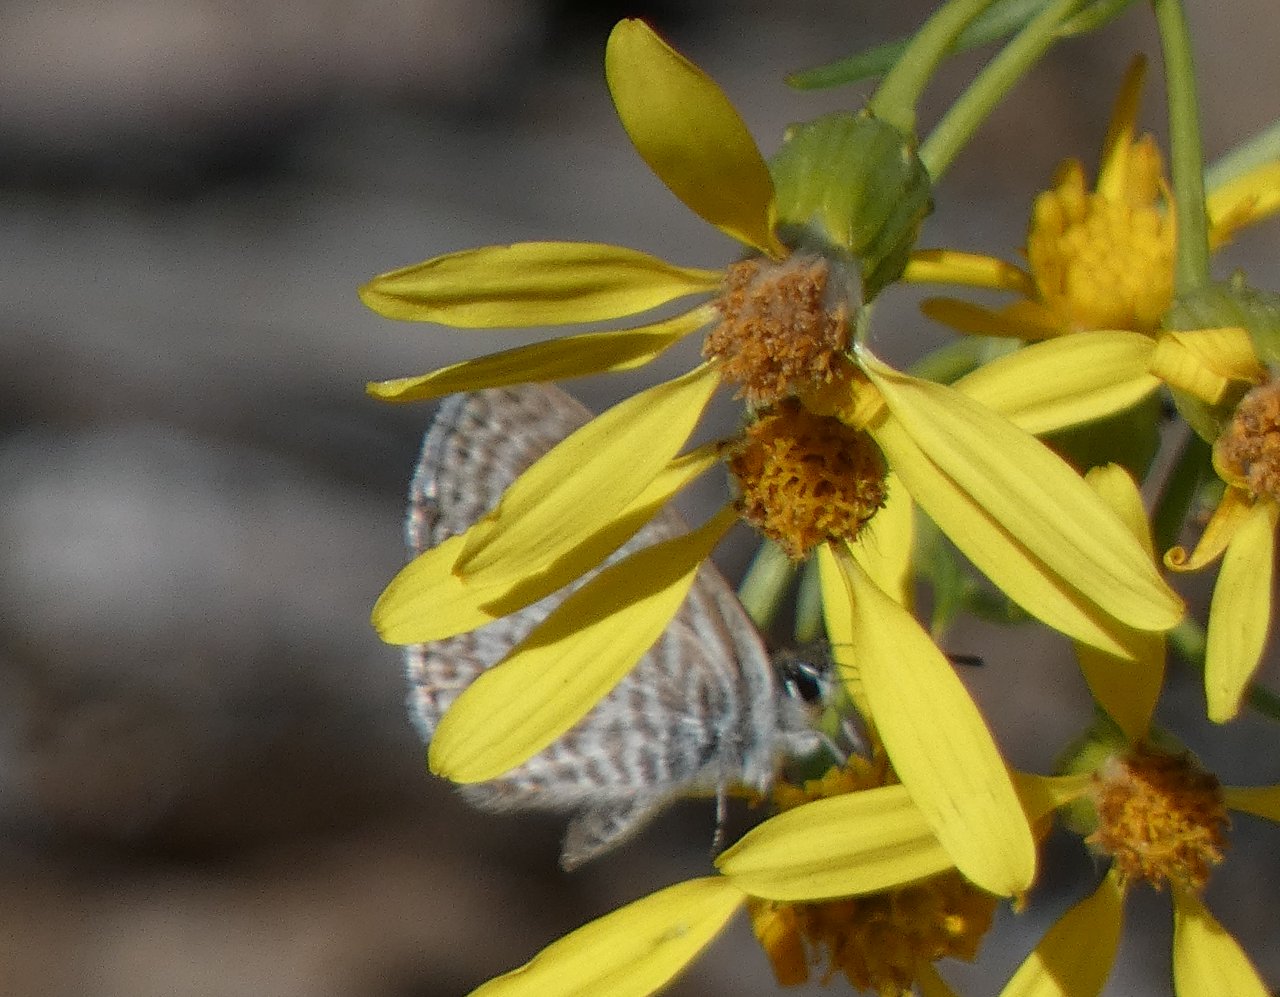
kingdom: Animalia
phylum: Arthropoda
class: Insecta
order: Lepidoptera
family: Lycaenidae
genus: Leptotes
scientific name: Leptotes marina
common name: Marine Blue
